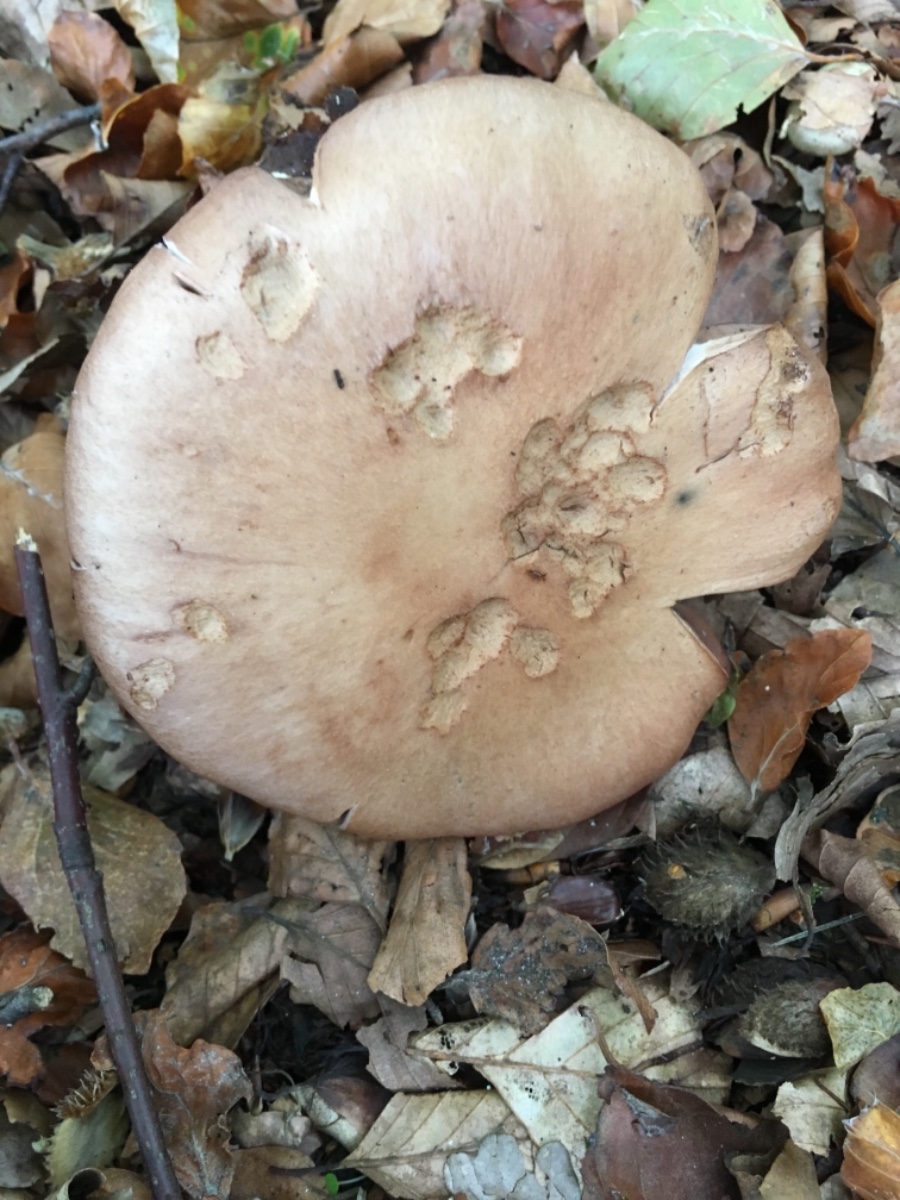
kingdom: Fungi
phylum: Basidiomycota
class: Agaricomycetes
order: Agaricales
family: Cortinariaceae
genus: Cortinarius
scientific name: Cortinarius torvus
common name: champignonagtig slørhat
